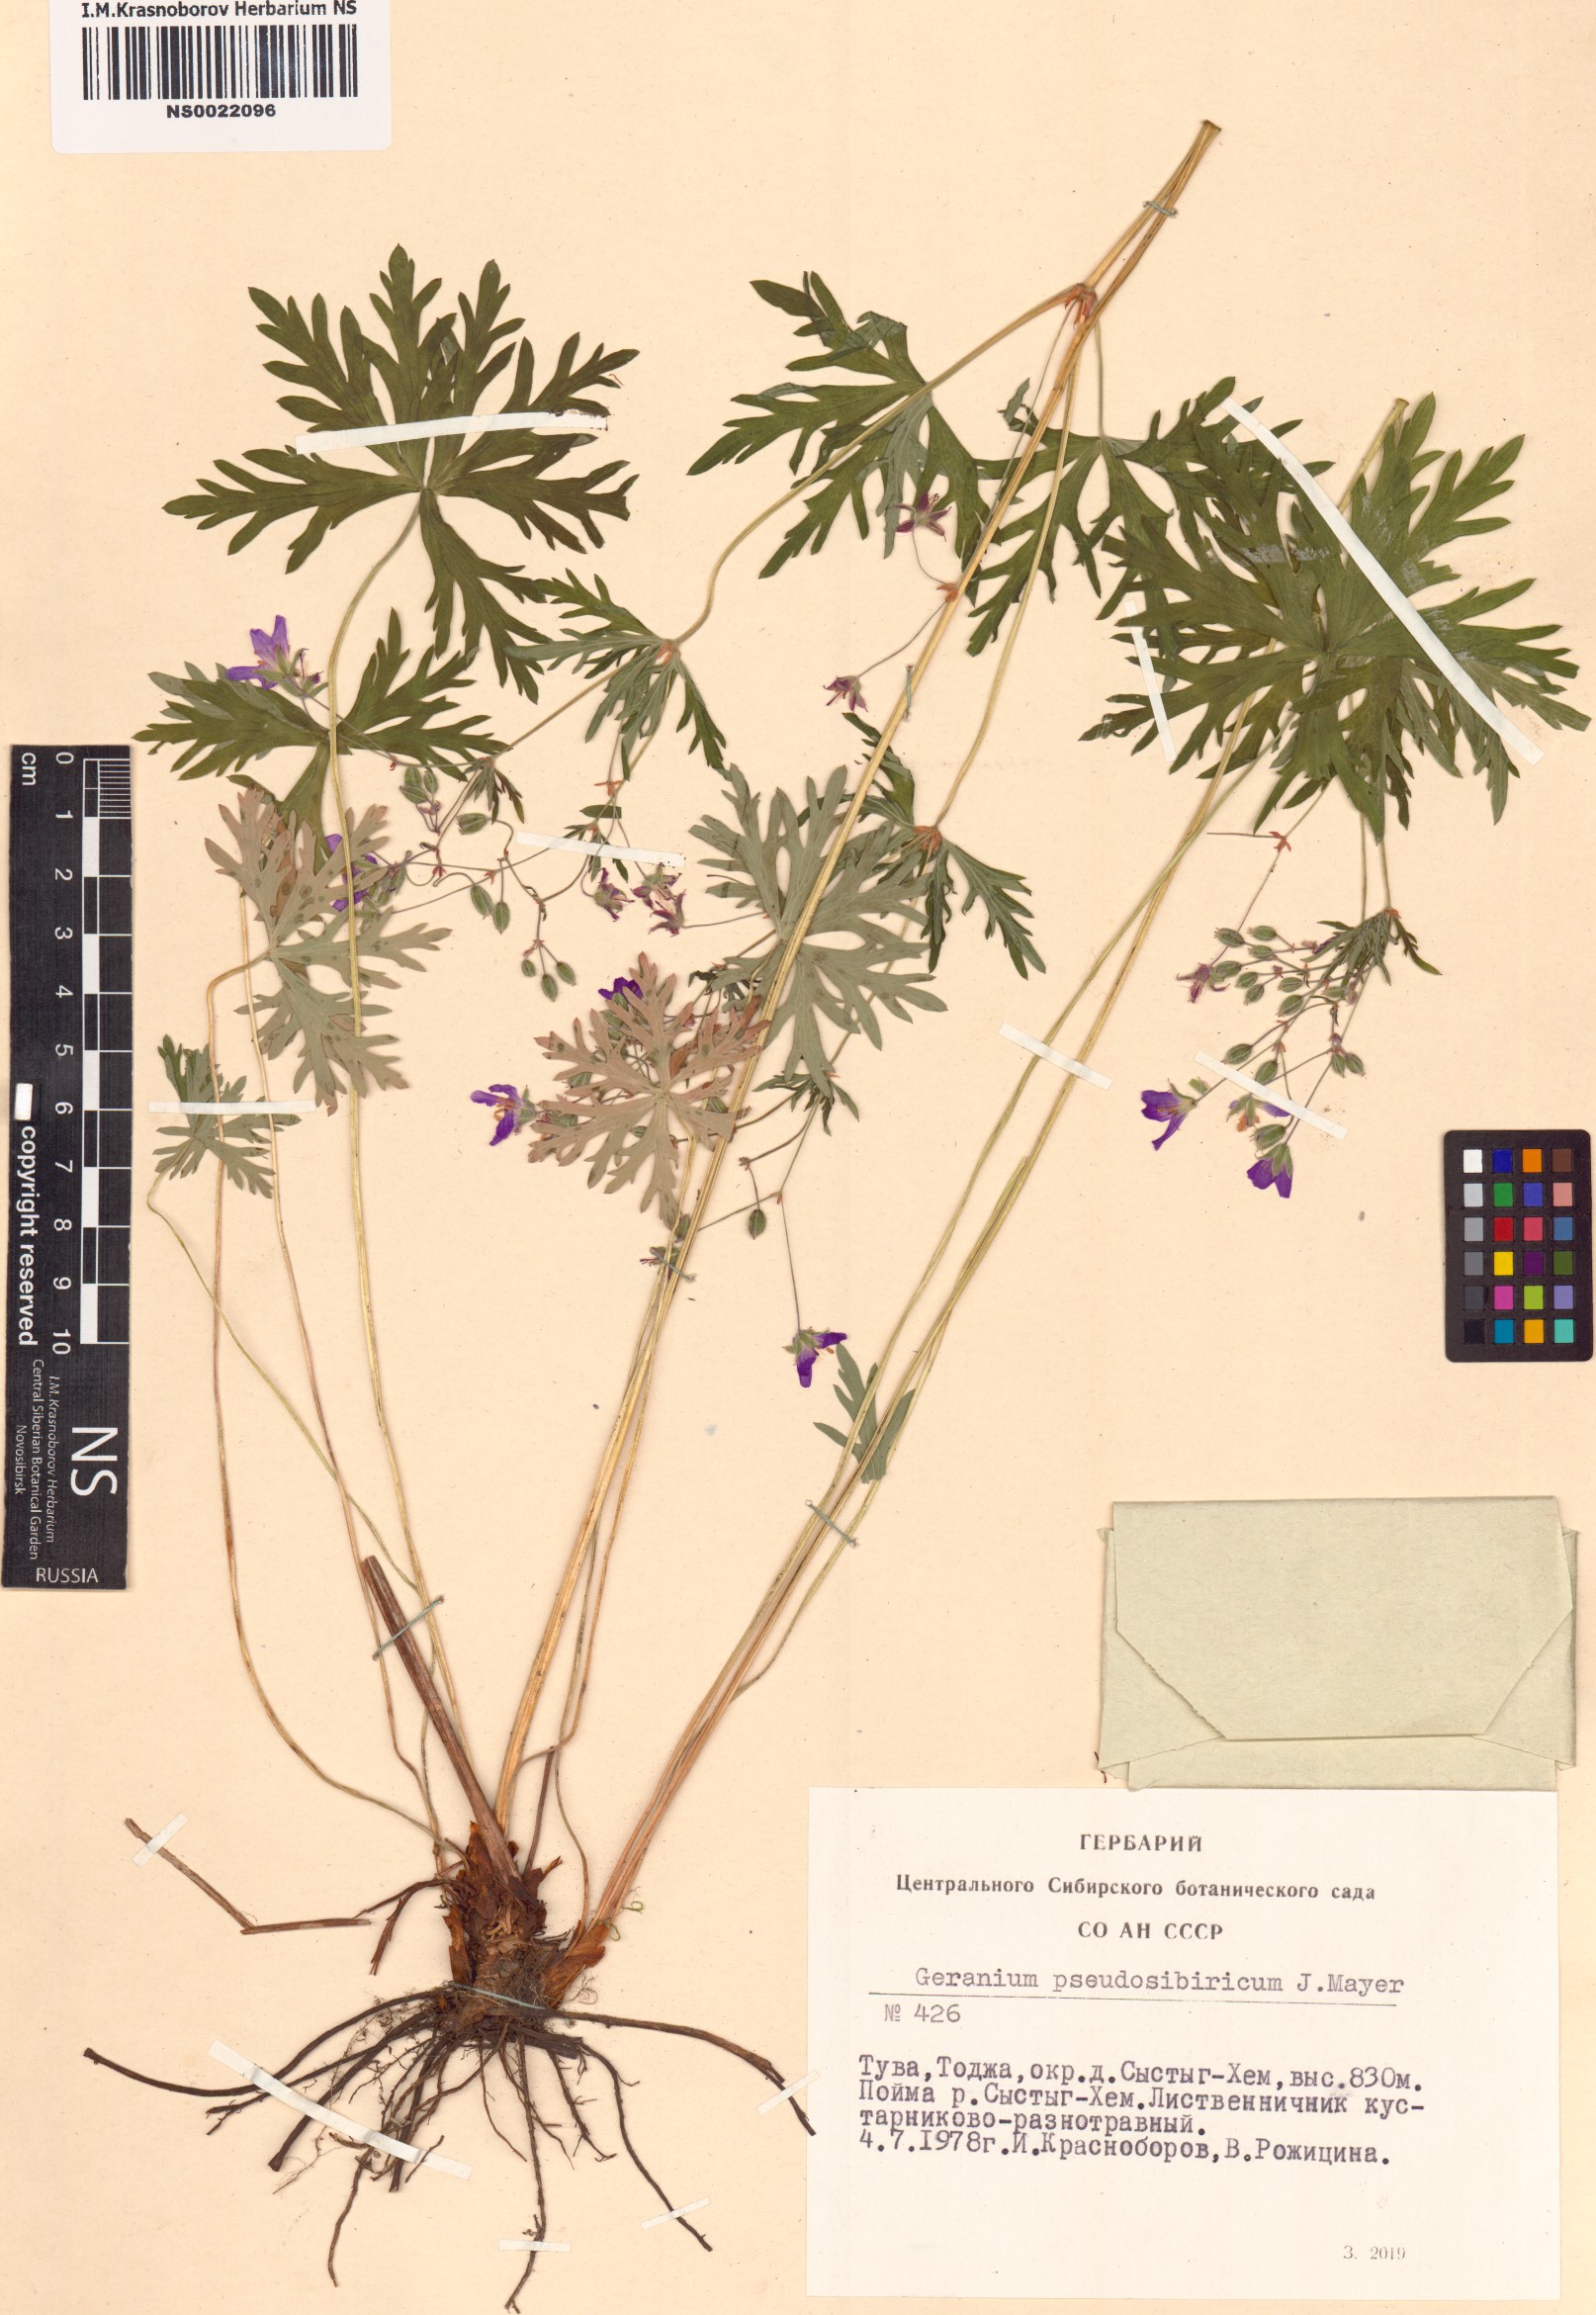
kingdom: Plantae
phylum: Tracheophyta
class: Magnoliopsida
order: Geraniales
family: Geraniaceae
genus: Geranium
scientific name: Geranium pseudosibiricum
